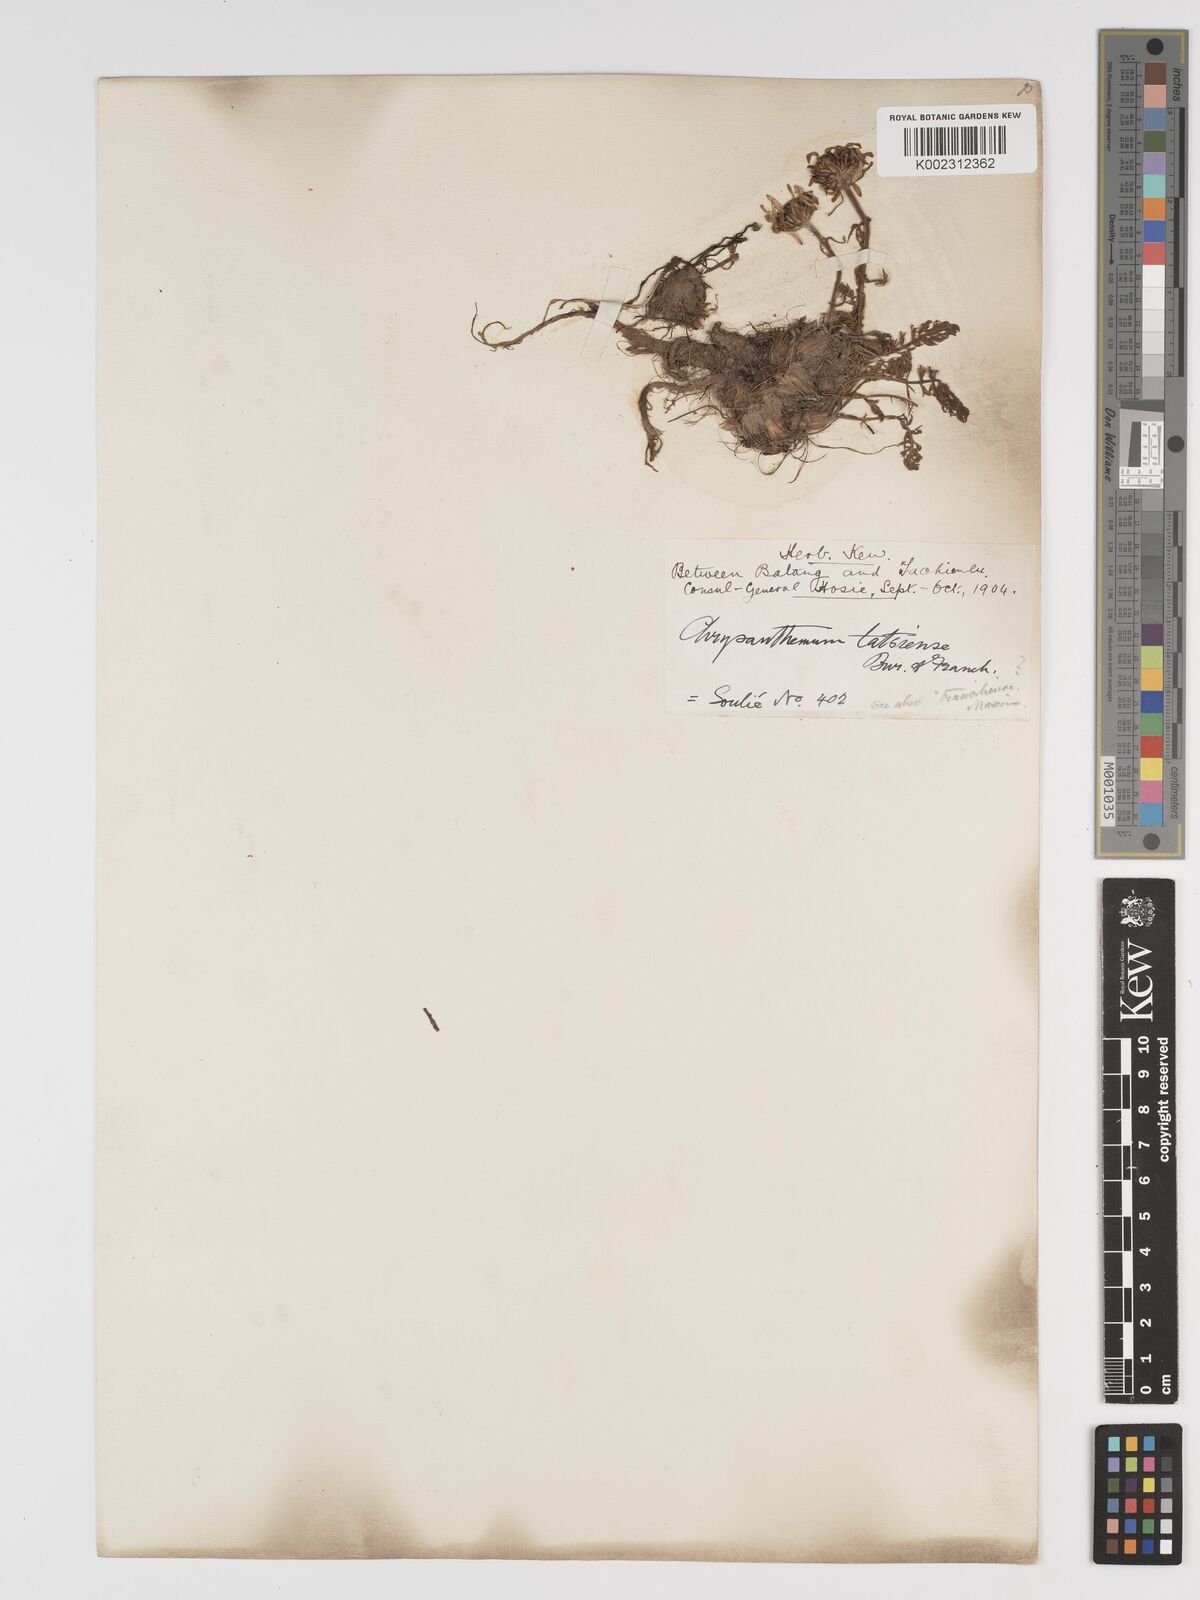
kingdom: Plantae
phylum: Tracheophyta
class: Magnoliopsida
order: Asterales
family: Asteraceae
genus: Tanacetum
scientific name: Tanacetum tatsienense
